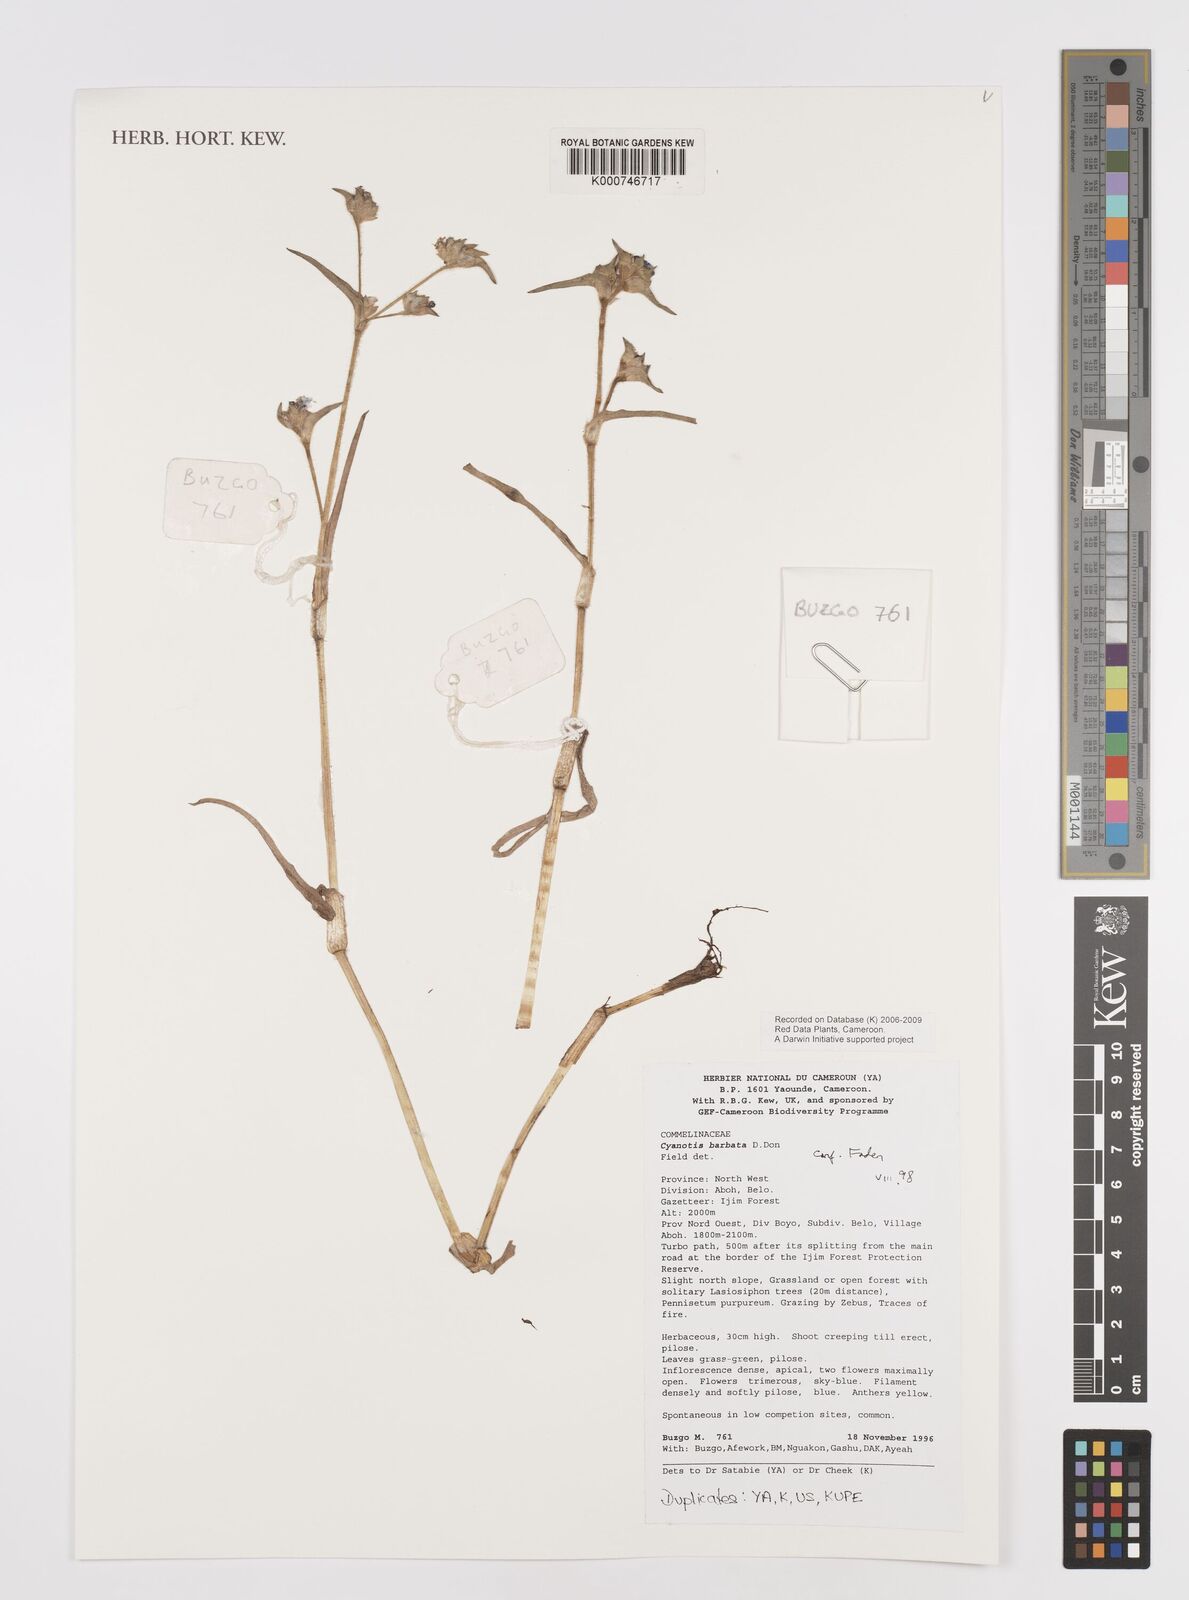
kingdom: Plantae
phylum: Tracheophyta
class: Liliopsida
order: Commelinales
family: Commelinaceae
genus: Cyanotis
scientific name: Cyanotis vaga
